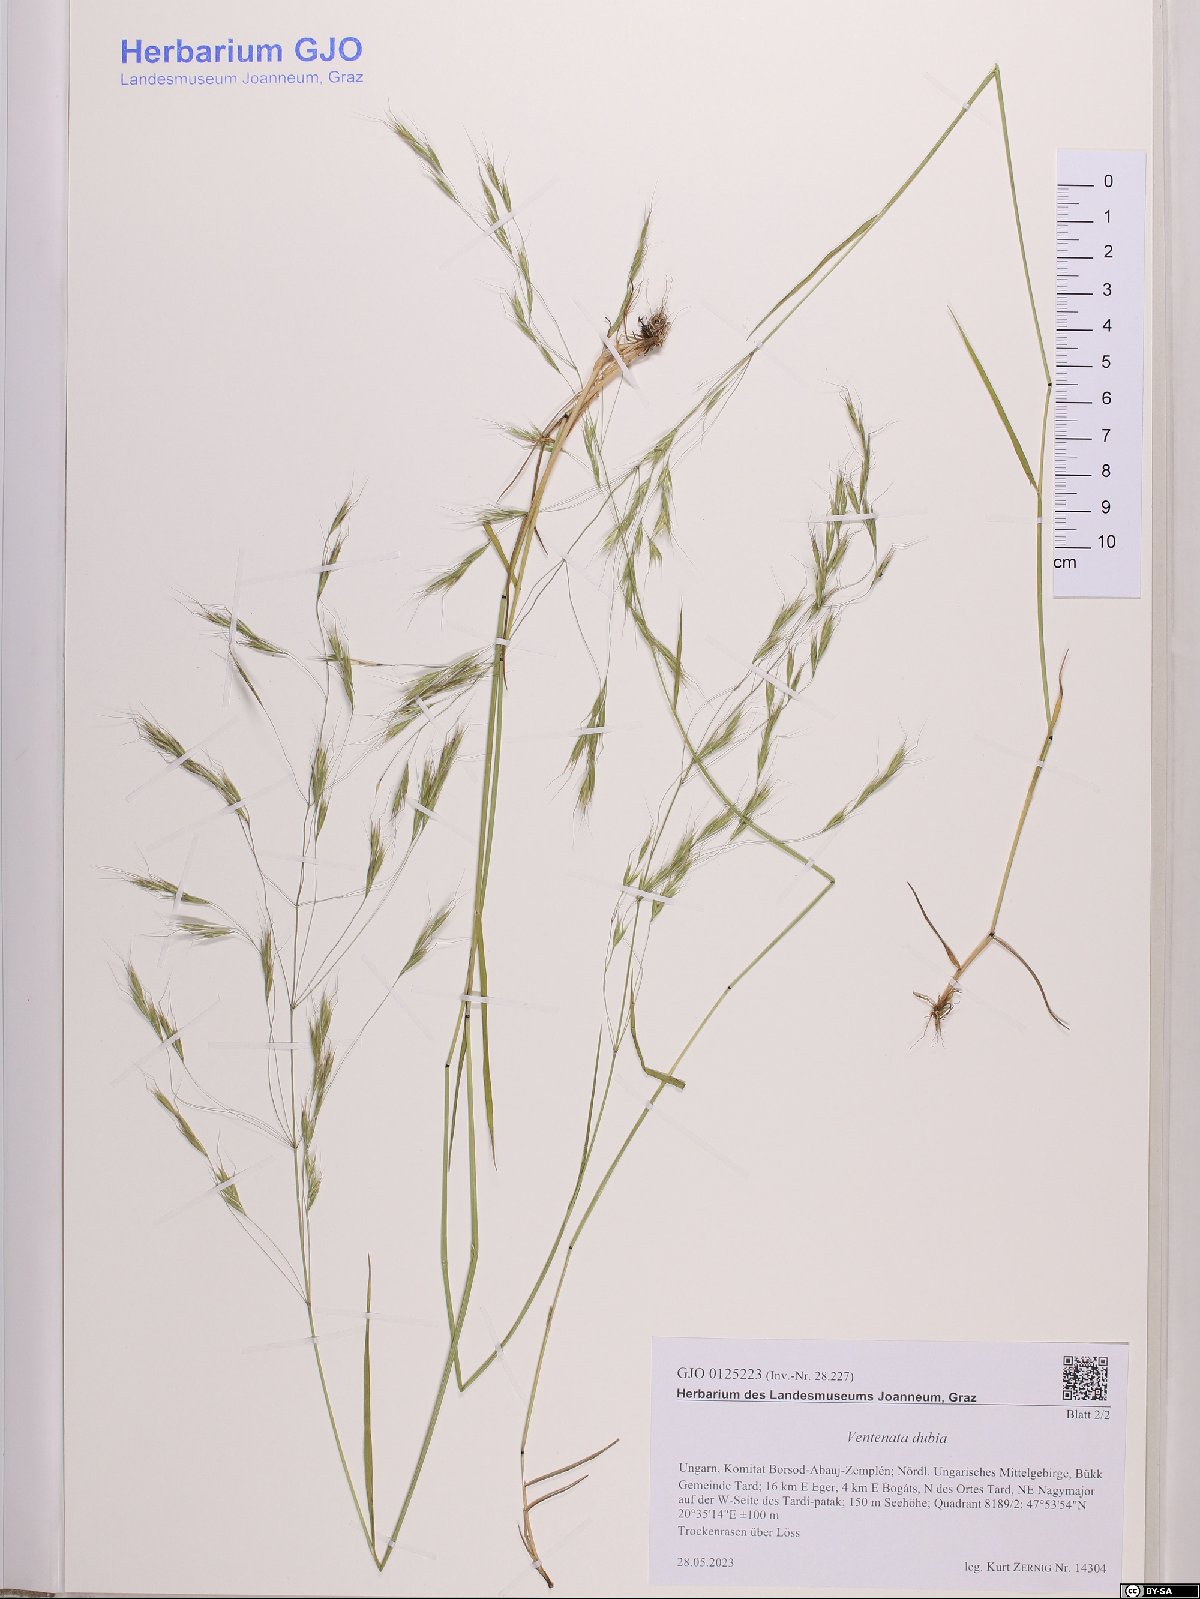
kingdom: Plantae
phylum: Tracheophyta
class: Liliopsida
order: Poales
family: Poaceae
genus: Ventenata
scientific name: Ventenata dubia
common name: North africa grass
